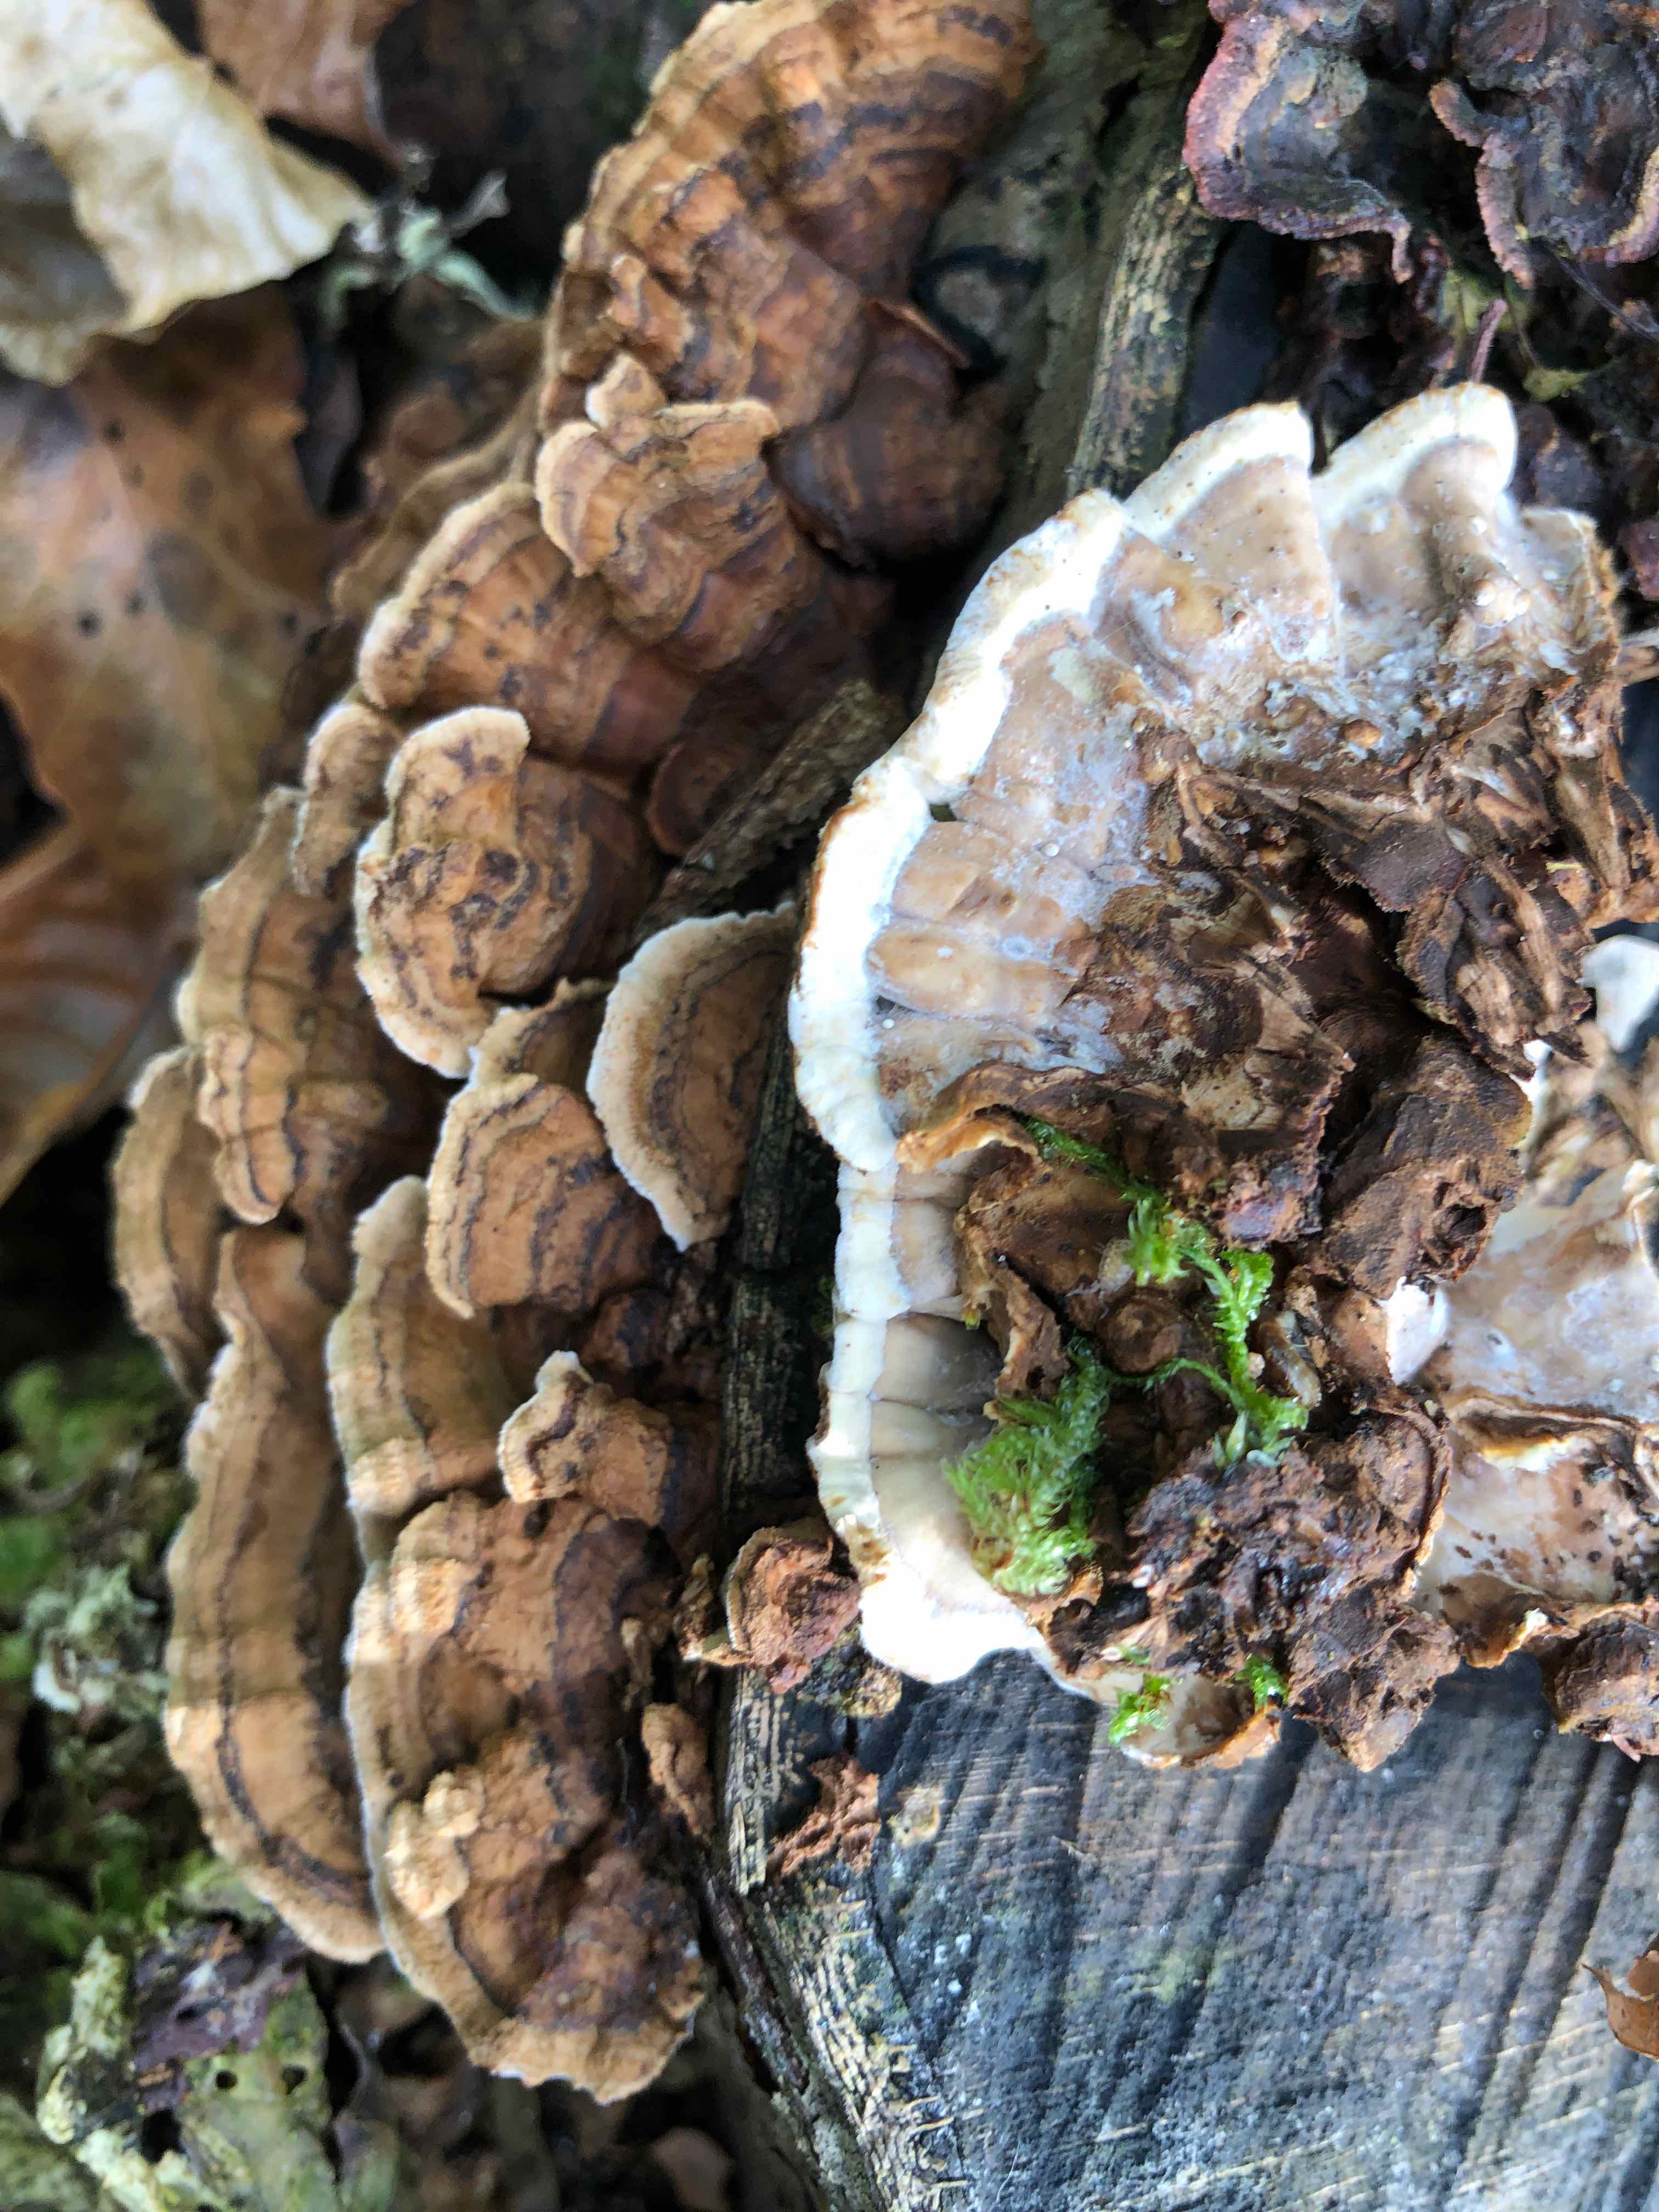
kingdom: Fungi
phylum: Basidiomycota
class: Agaricomycetes
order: Russulales
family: Hericiaceae
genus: Laxitextum
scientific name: Laxitextum bicolor
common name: tvefarvet filtskind
